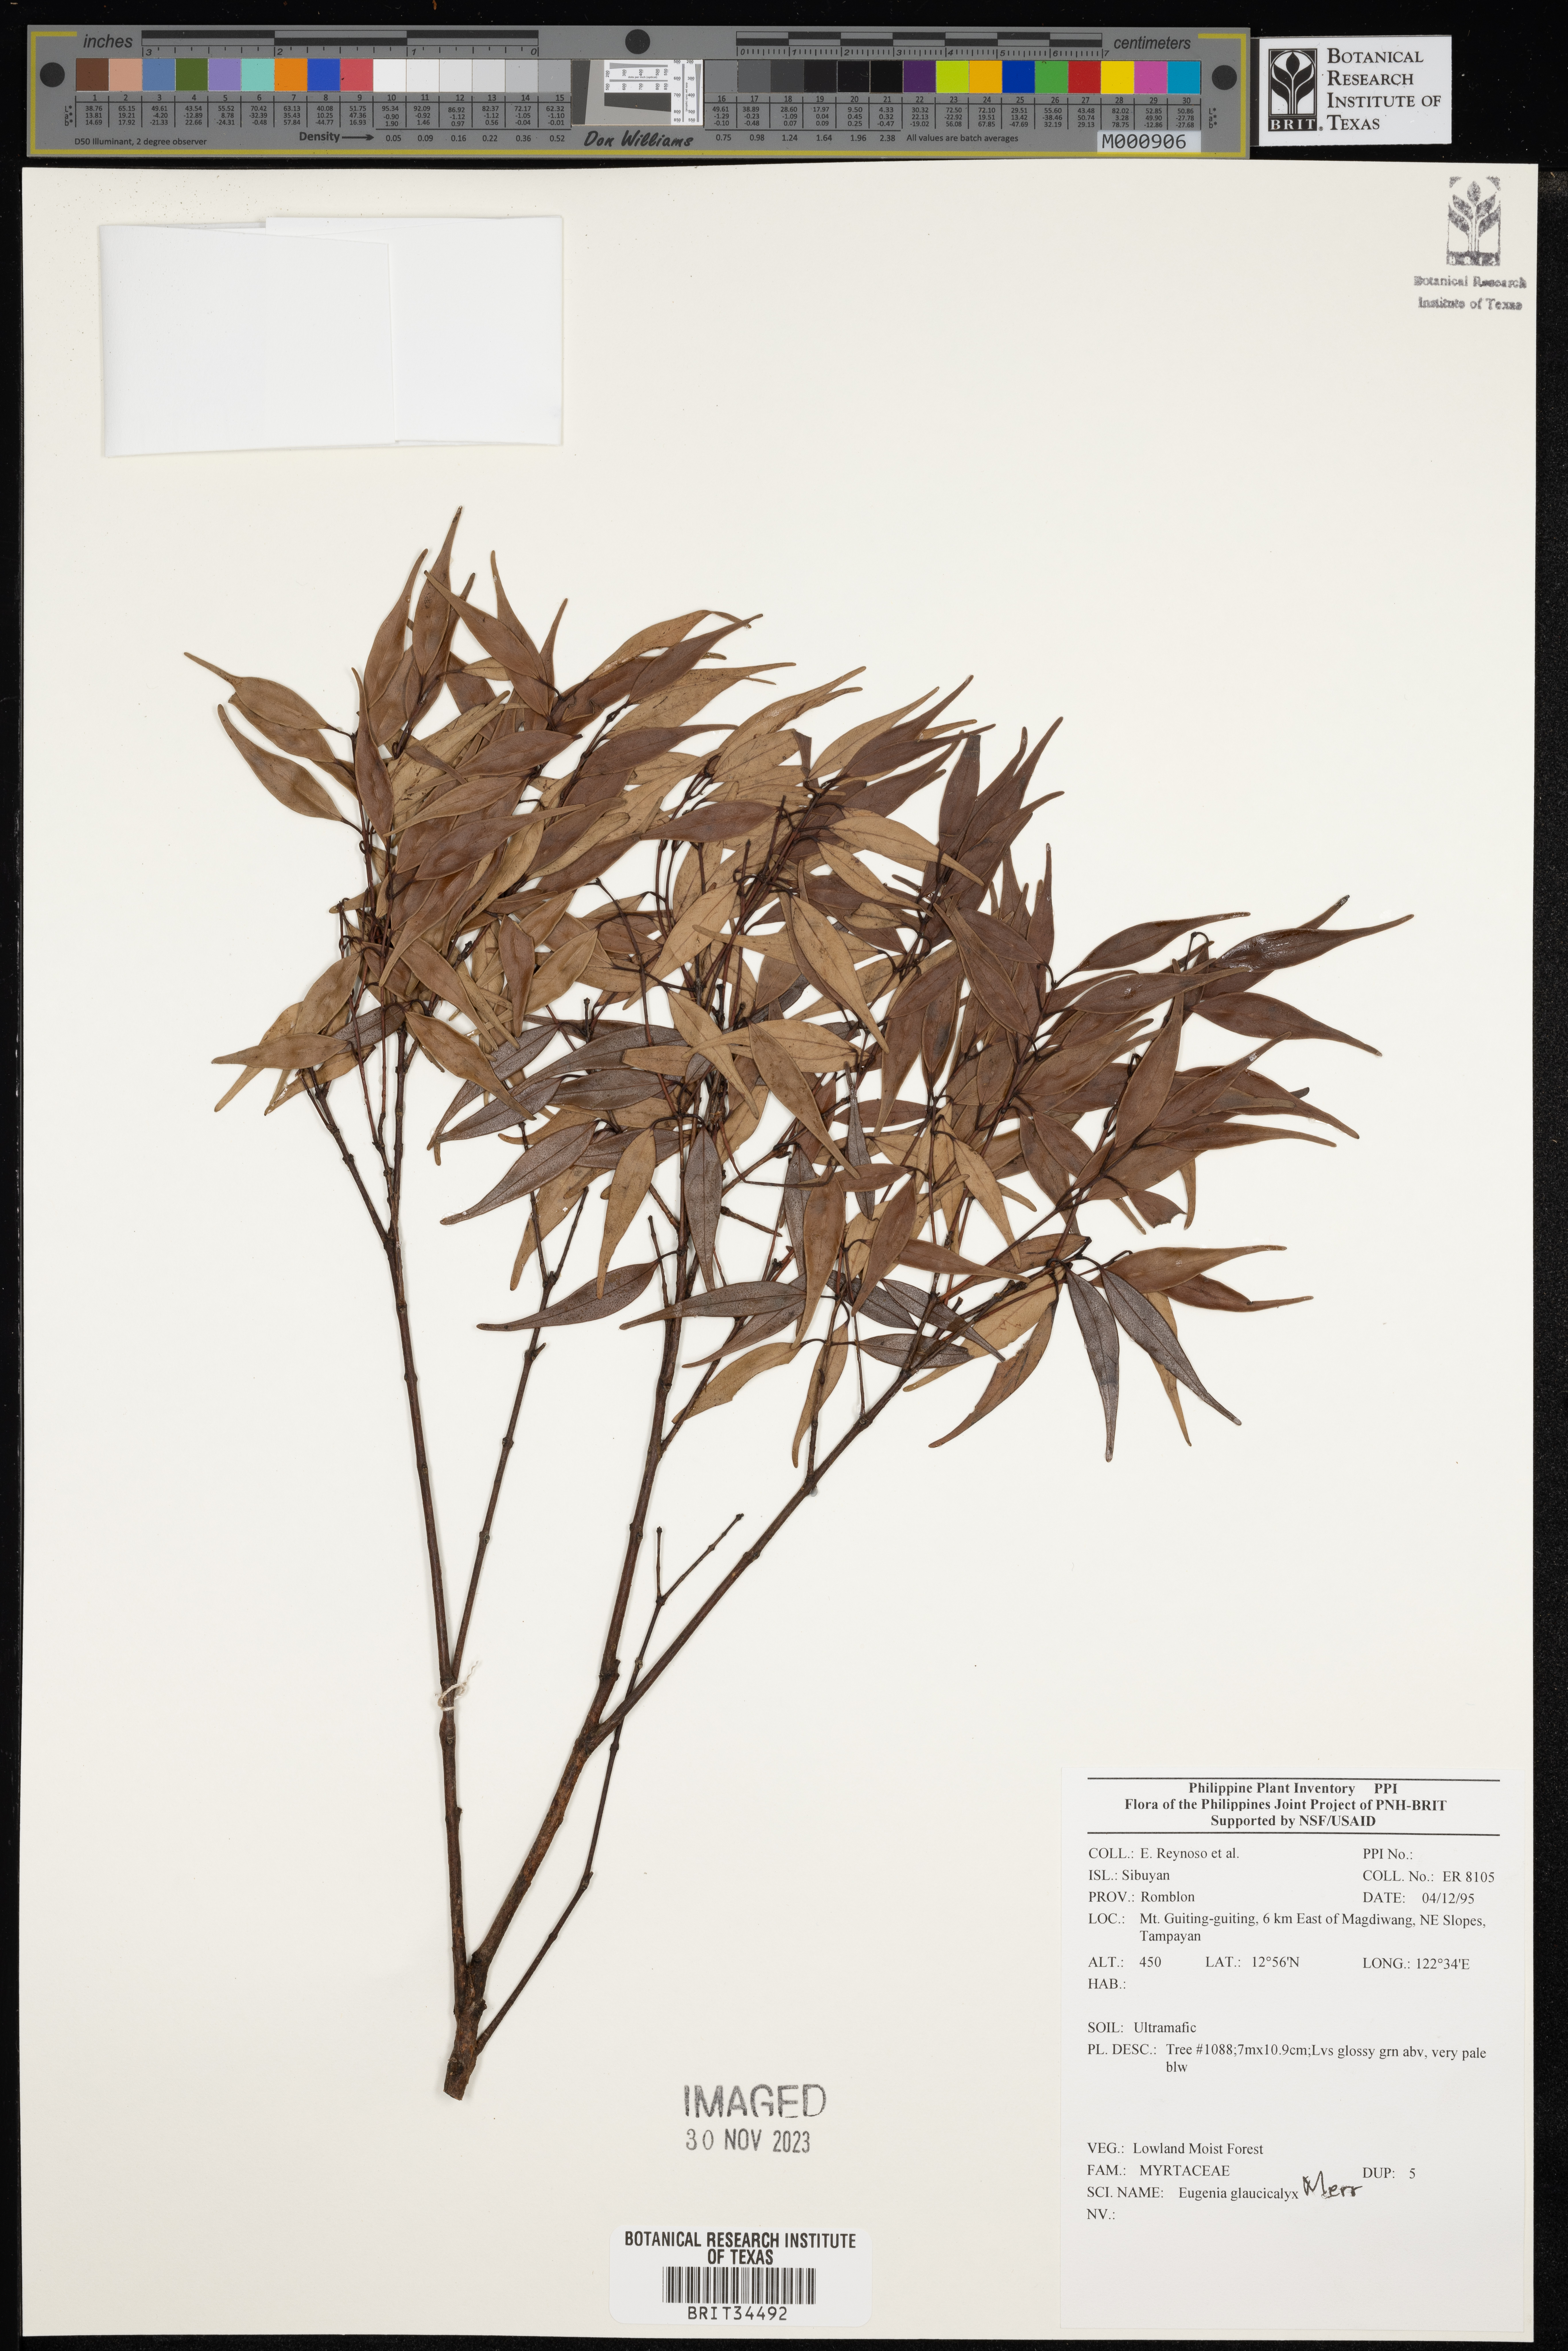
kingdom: Plantae
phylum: Tracheophyta
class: Magnoliopsida
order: Myrtales
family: Myrtaceae
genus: Eugenia
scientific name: Eugenia
